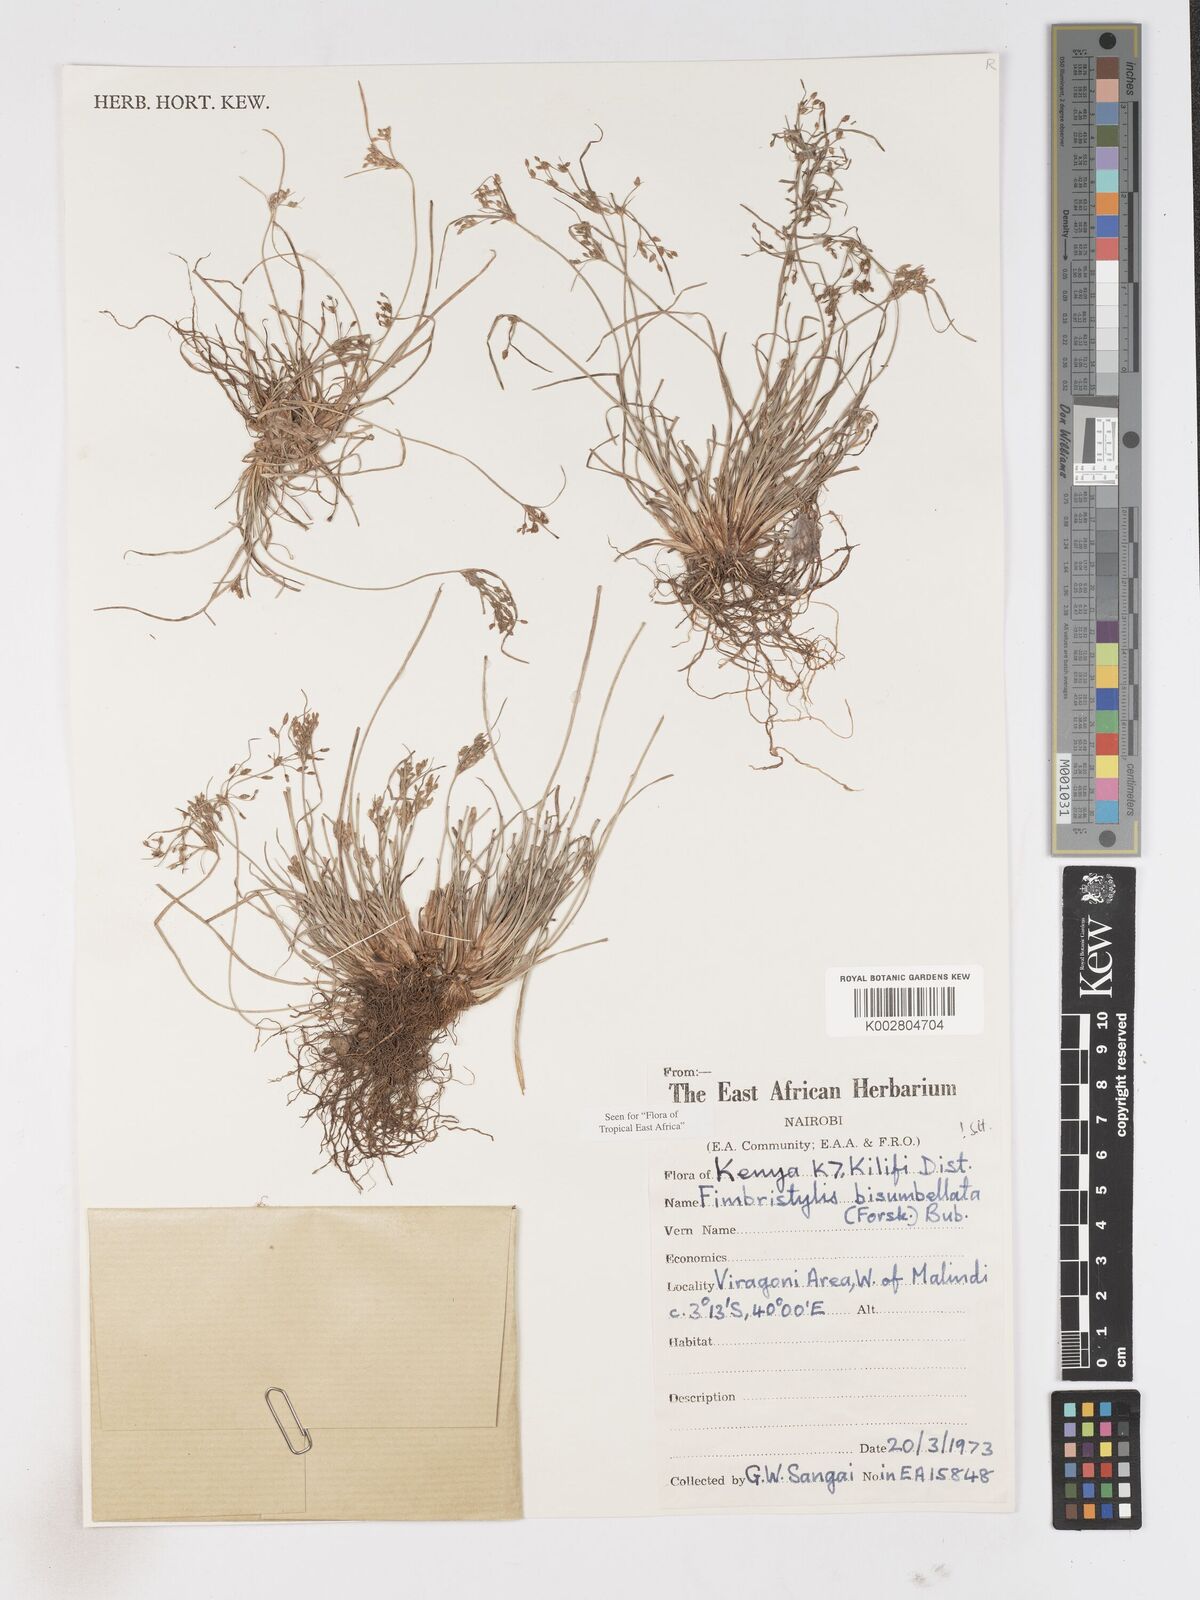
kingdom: Plantae
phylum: Tracheophyta
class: Liliopsida
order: Poales
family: Cyperaceae
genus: Fimbristylis
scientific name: Fimbristylis bisumbellata
